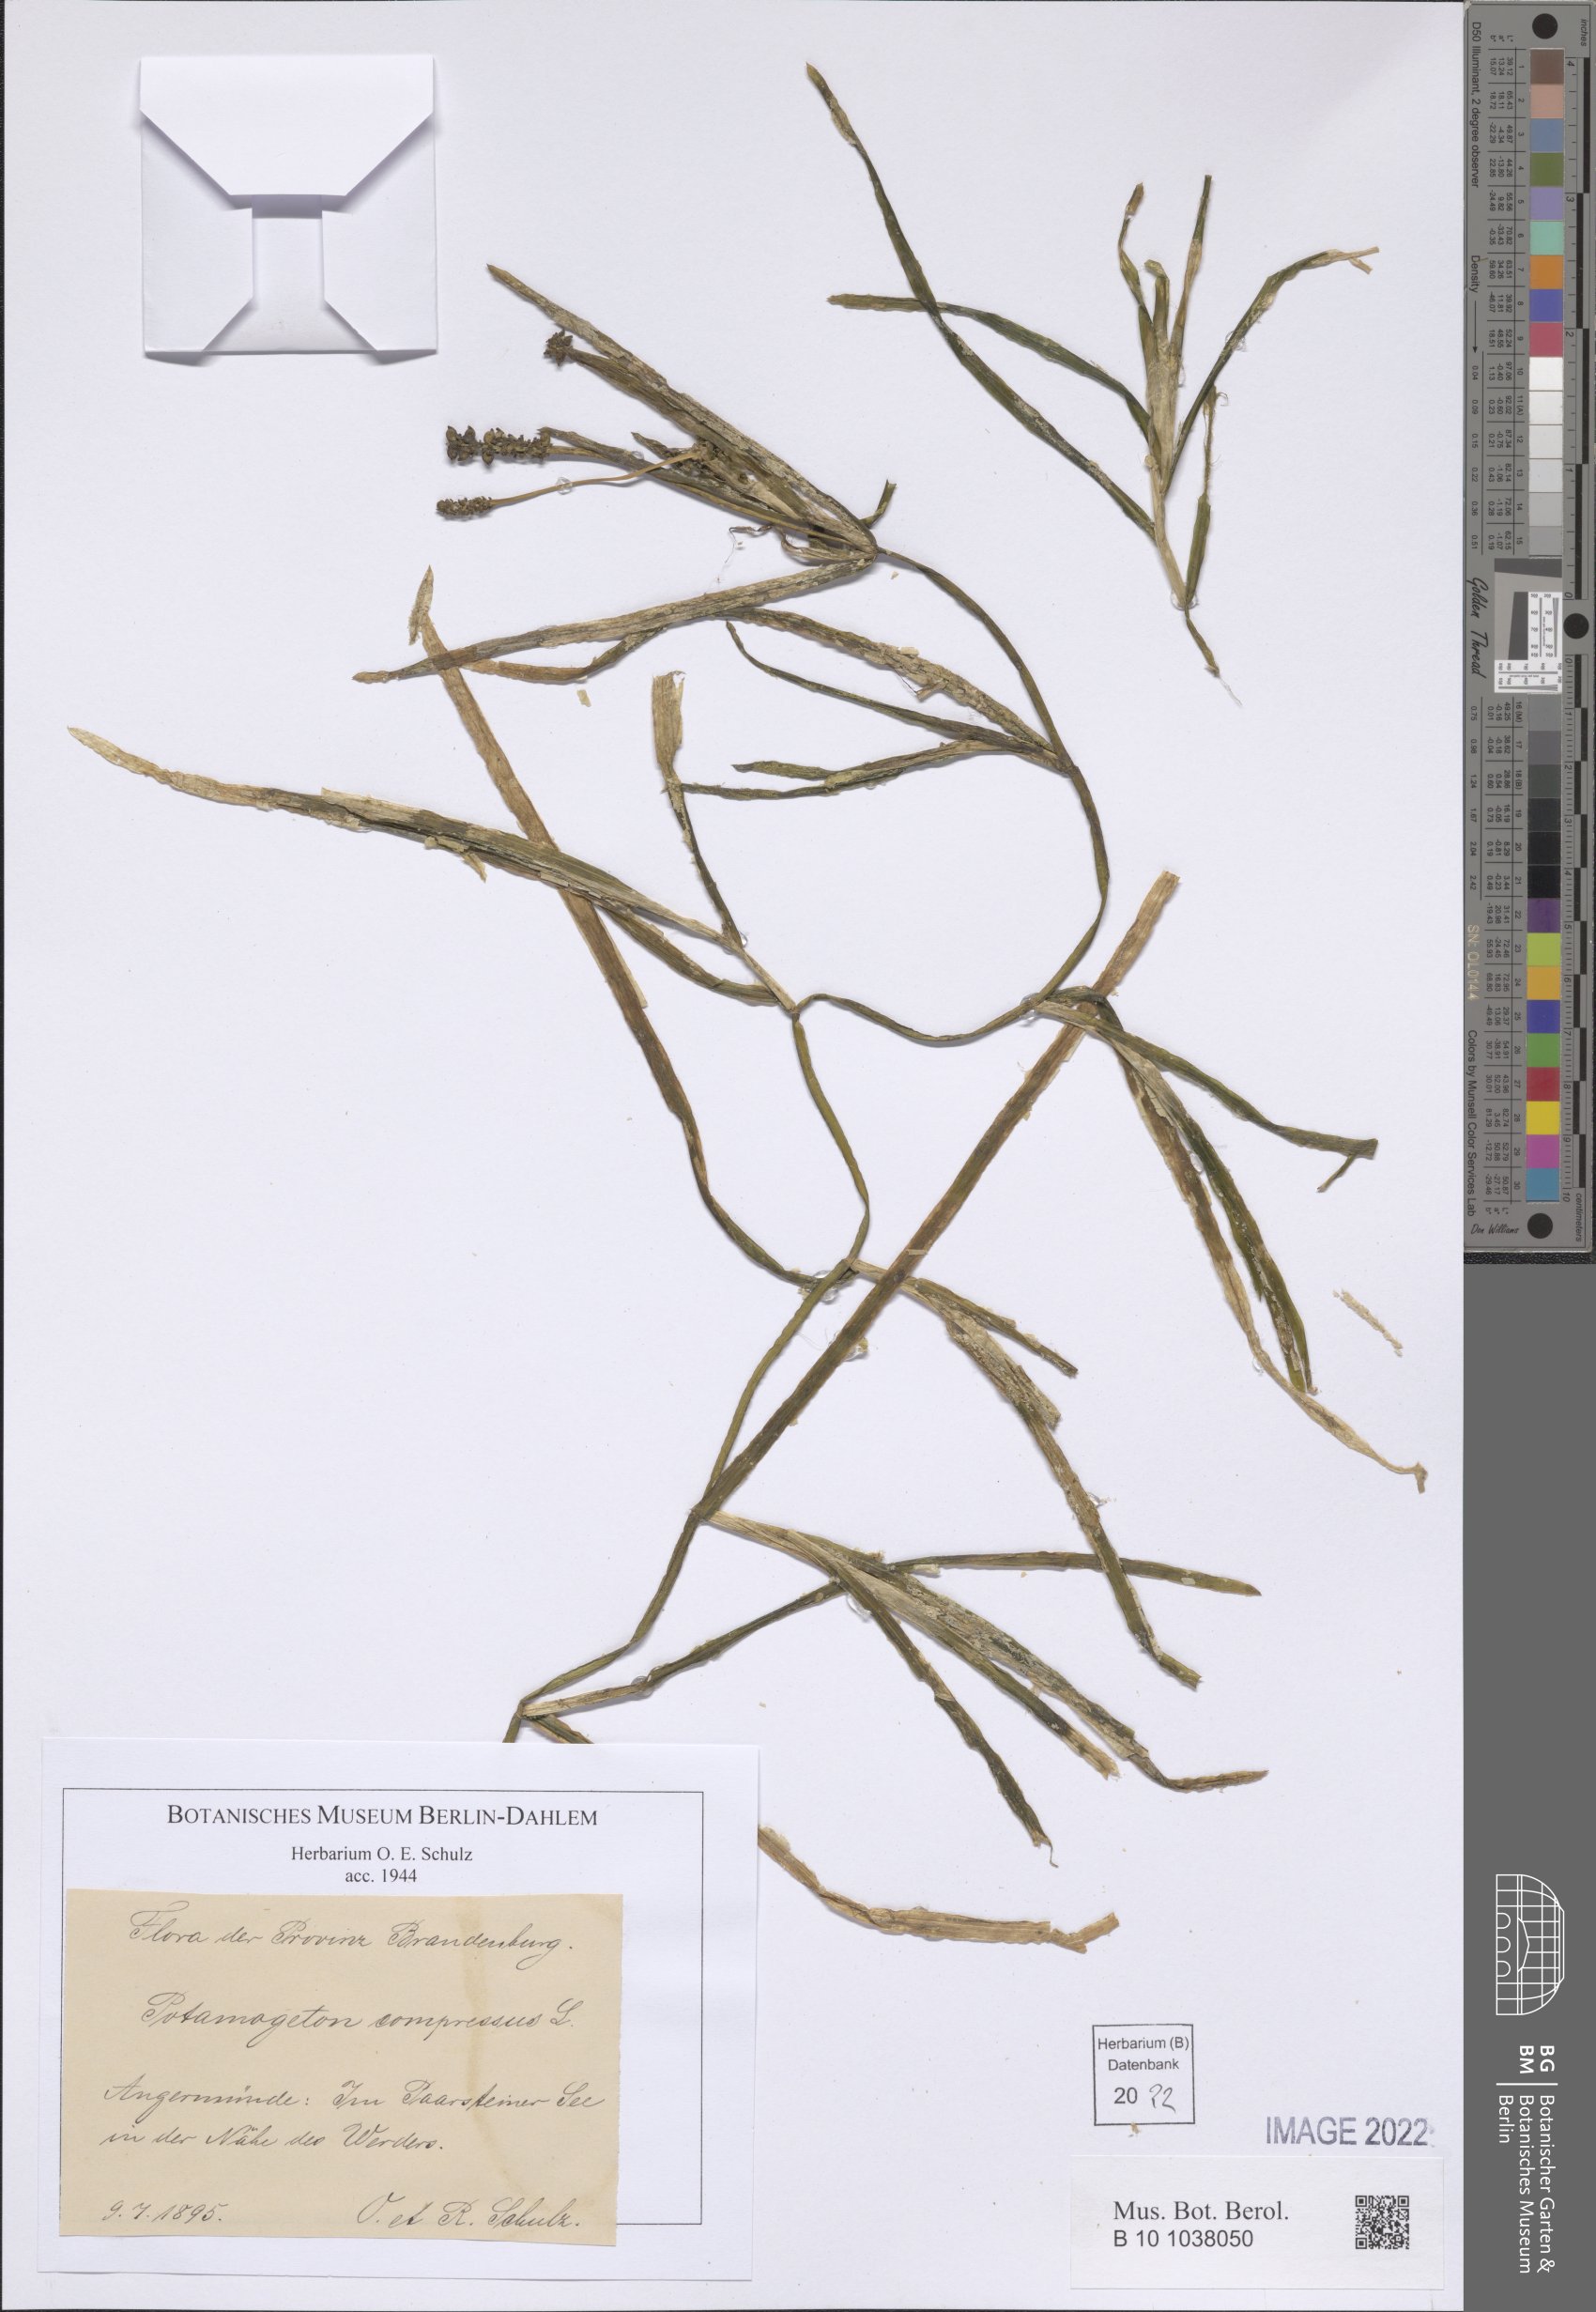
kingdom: Plantae
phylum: Tracheophyta
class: Liliopsida
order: Alismatales
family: Potamogetonaceae
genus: Potamogeton
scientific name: Potamogeton compressus
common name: Grass-wrack pondweed
